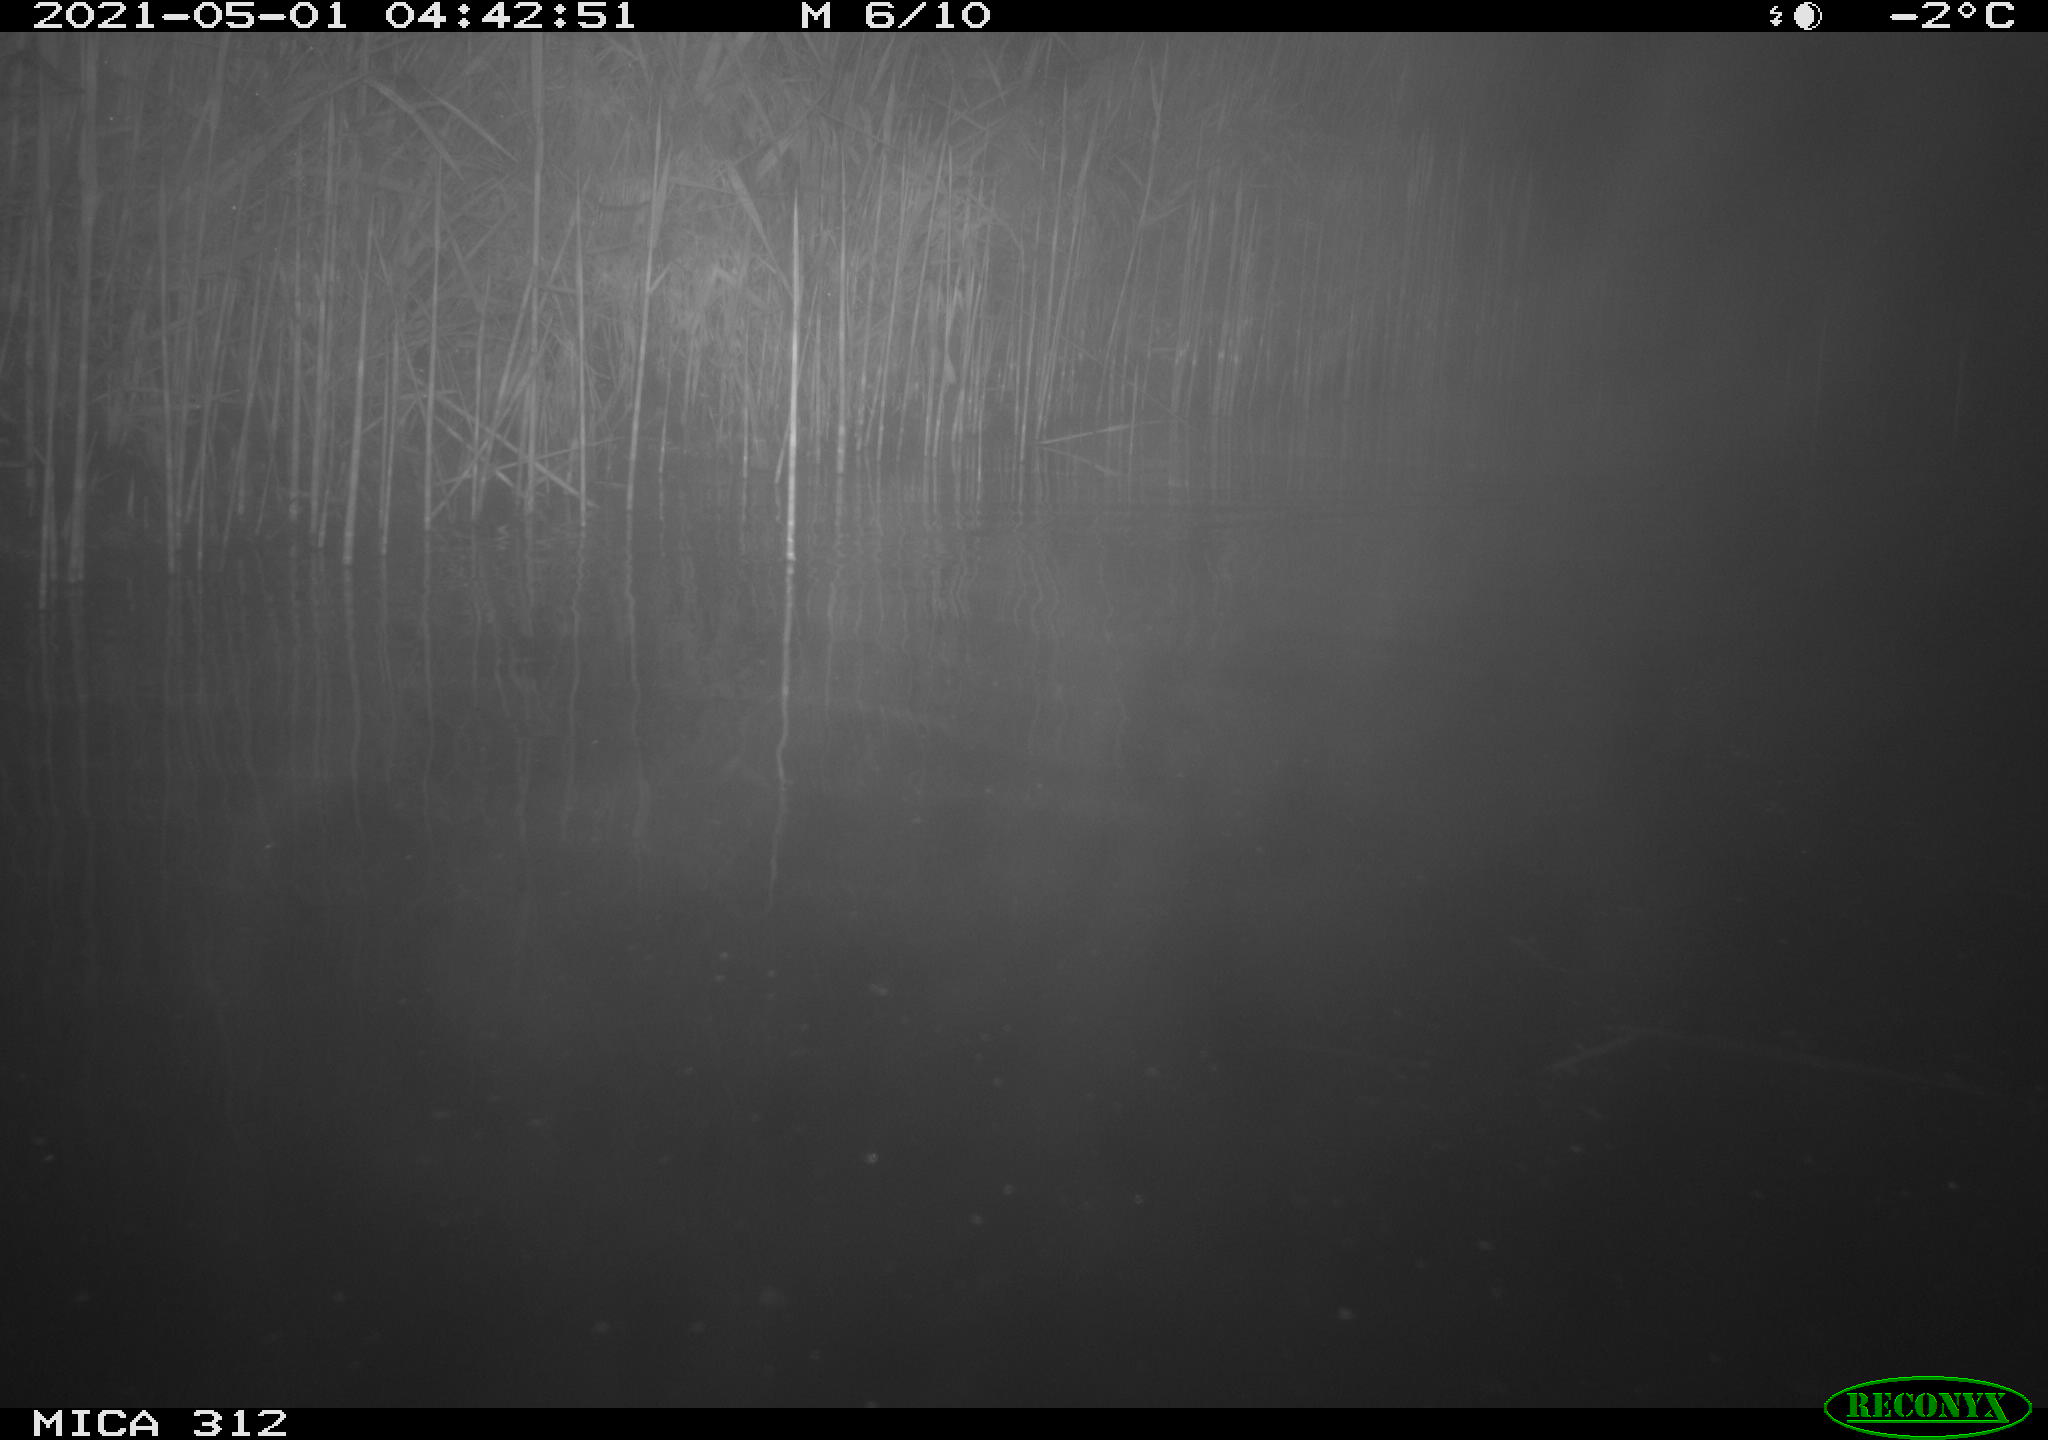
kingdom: Animalia
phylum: Chordata
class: Mammalia
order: Rodentia
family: Cricetidae
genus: Ondatra
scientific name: Ondatra zibethicus
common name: Muskrat
